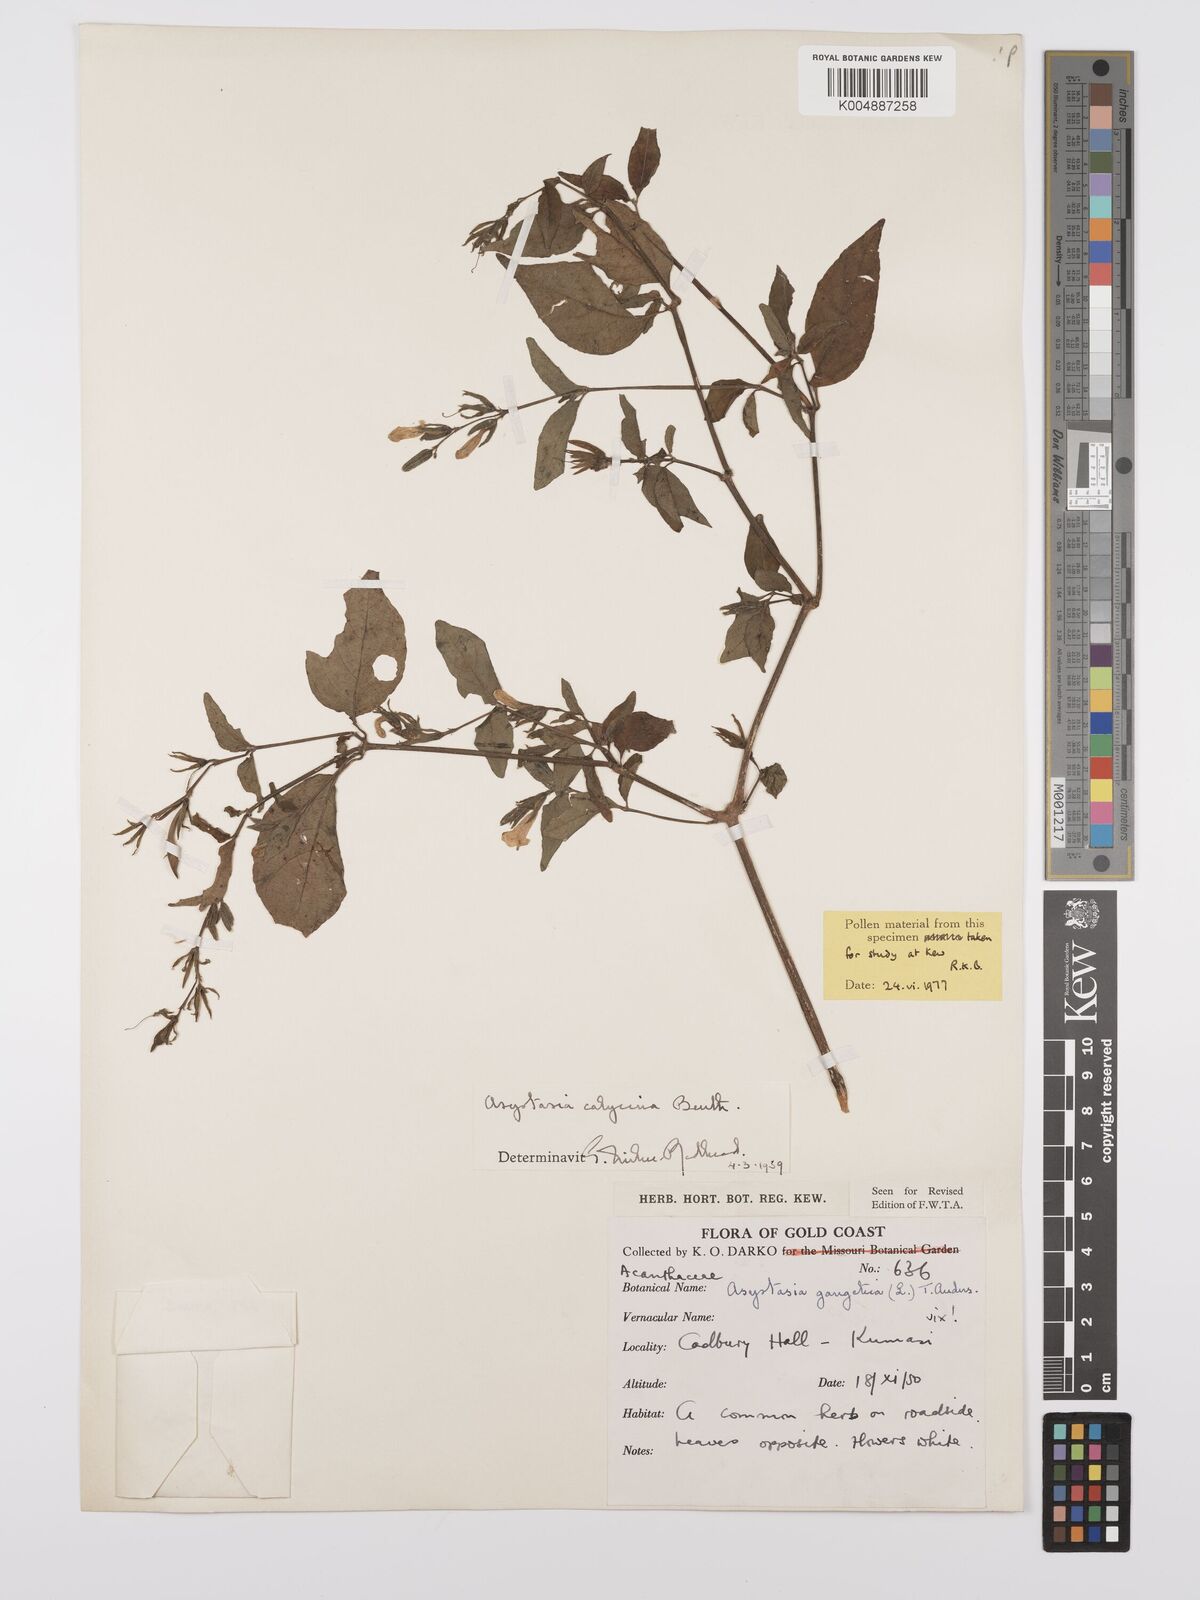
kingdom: Plantae
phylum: Tracheophyta
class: Magnoliopsida
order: Lamiales
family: Acanthaceae
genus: Asystasia
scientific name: Asystasia
